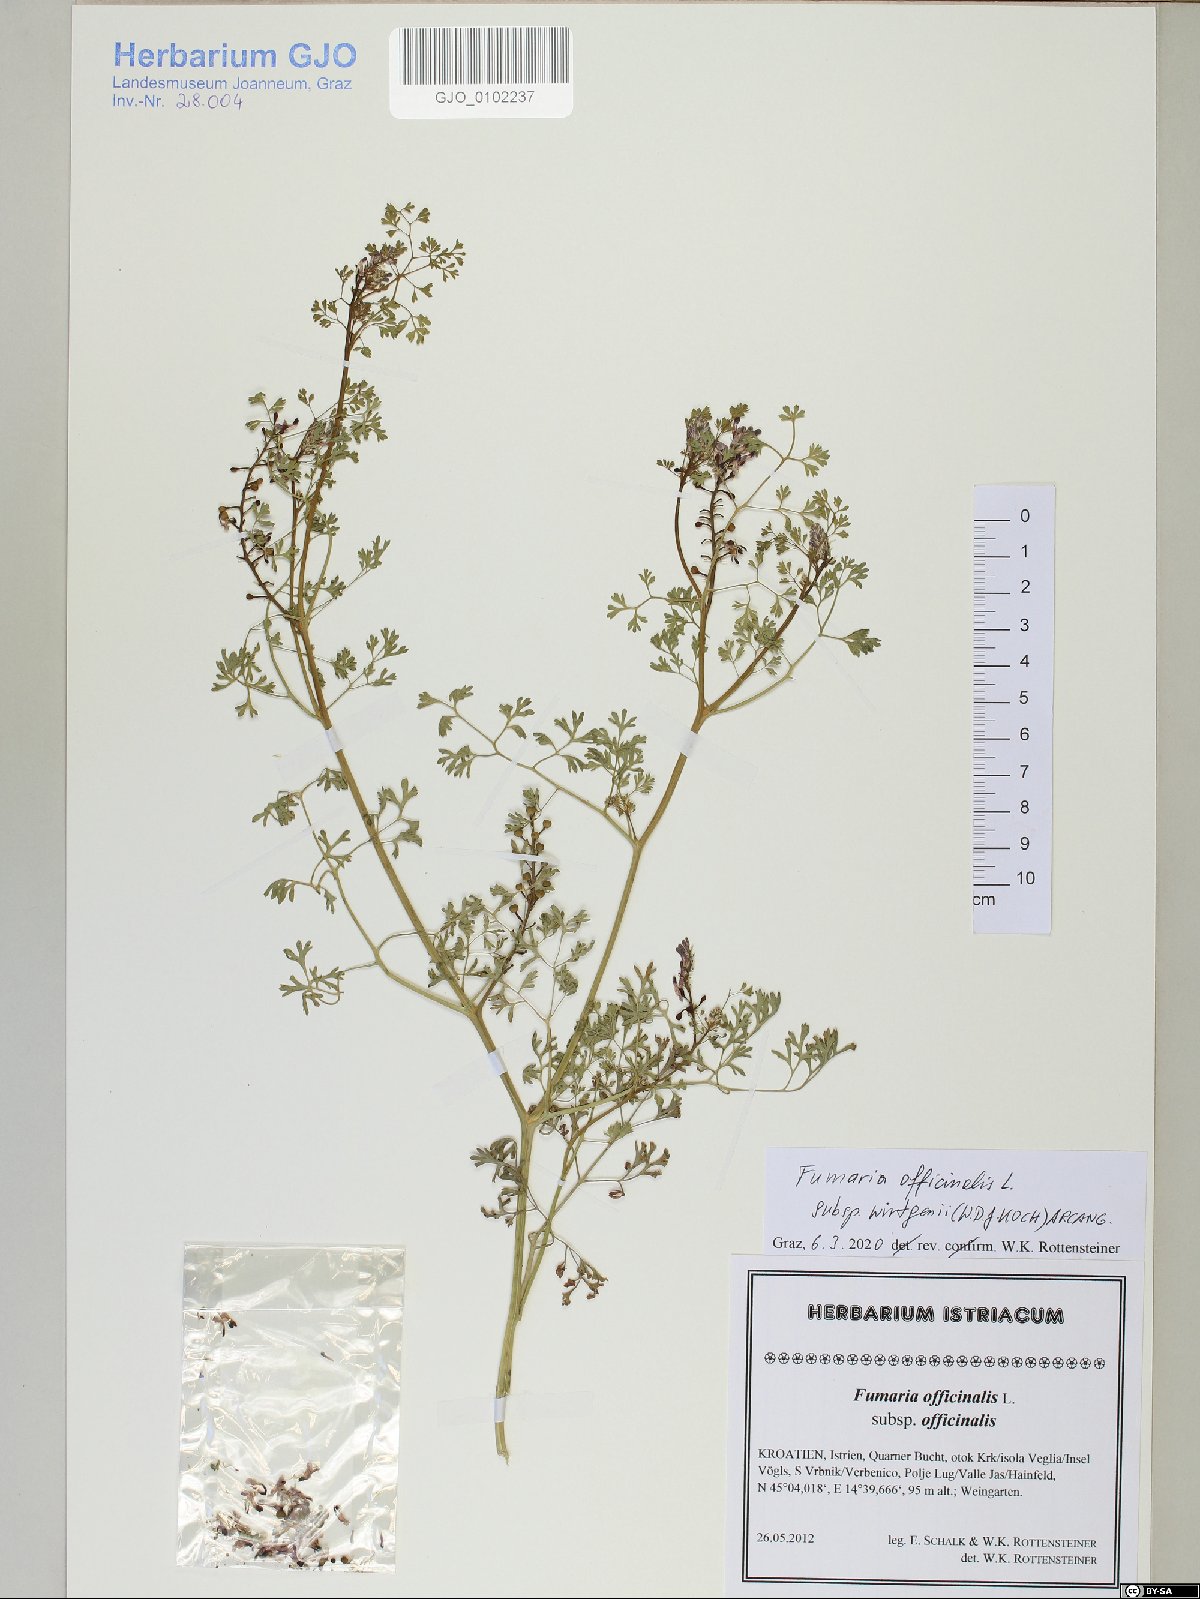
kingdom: Plantae
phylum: Tracheophyta
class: Magnoliopsida
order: Ranunculales
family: Papaveraceae
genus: Fumaria
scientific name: Fumaria wirtgenii
